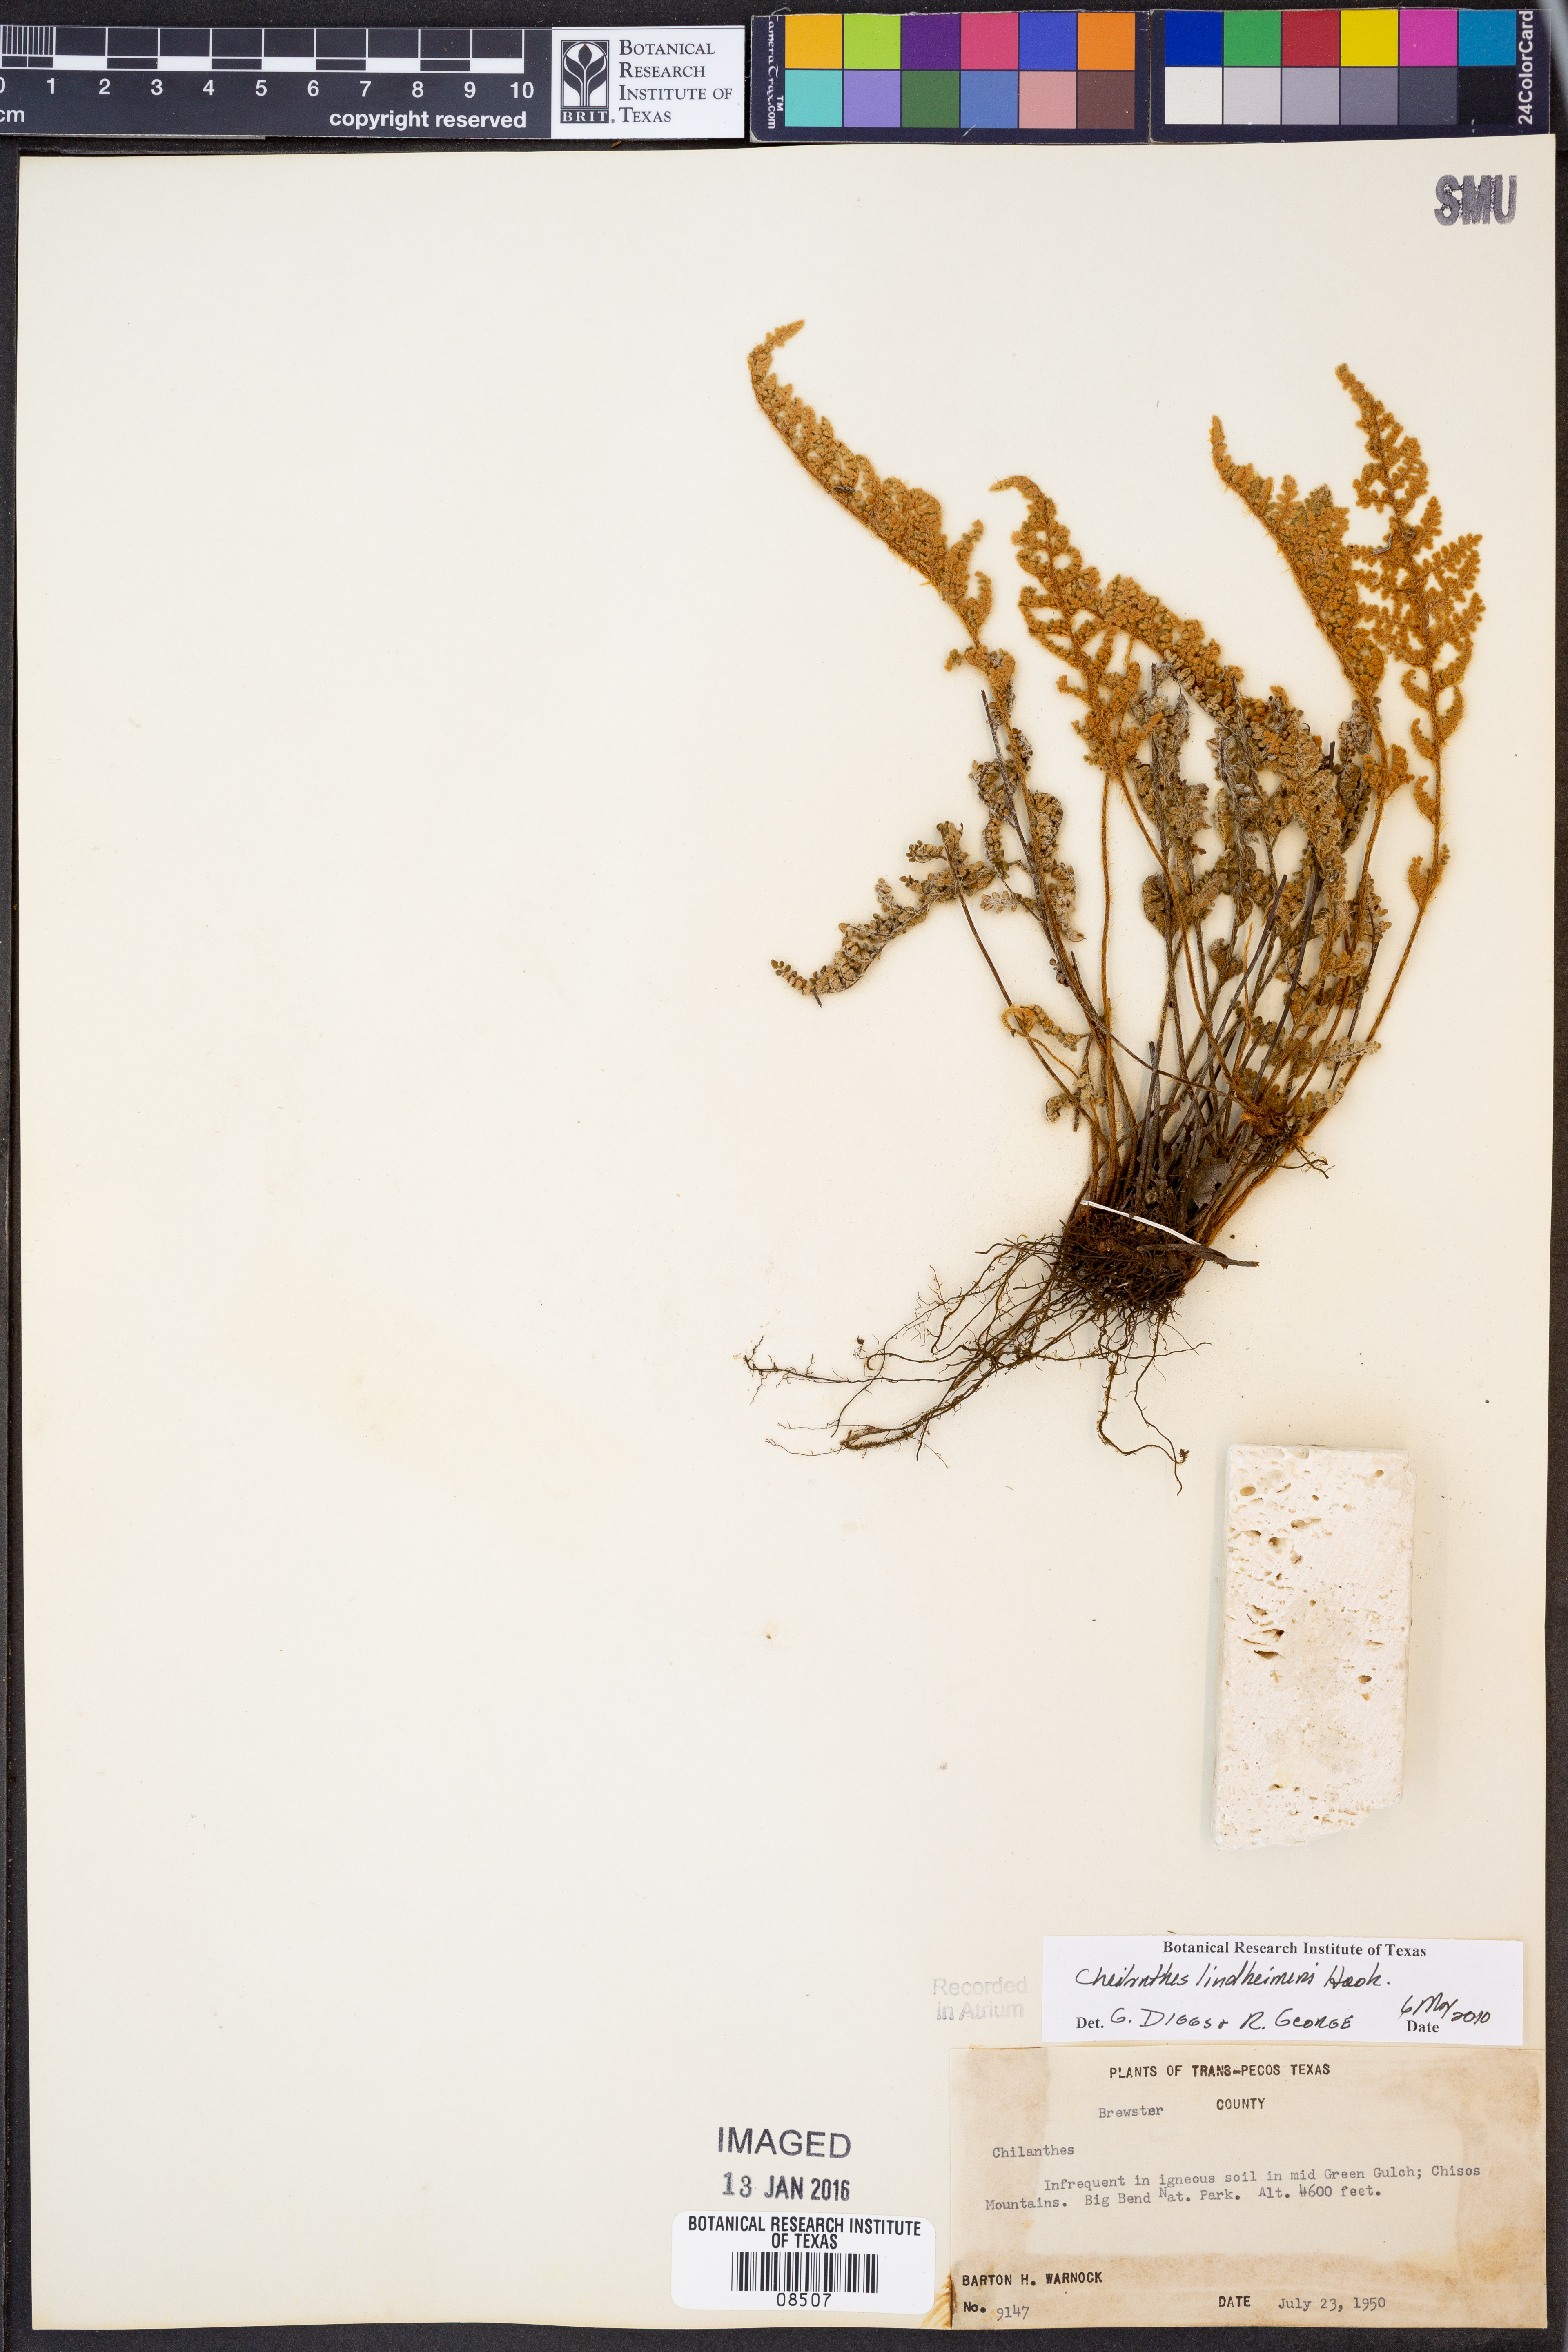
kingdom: Plantae
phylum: Tracheophyta
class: Polypodiopsida
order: Polypodiales
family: Pteridaceae
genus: Myriopteris
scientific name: Myriopteris lindheimeri
